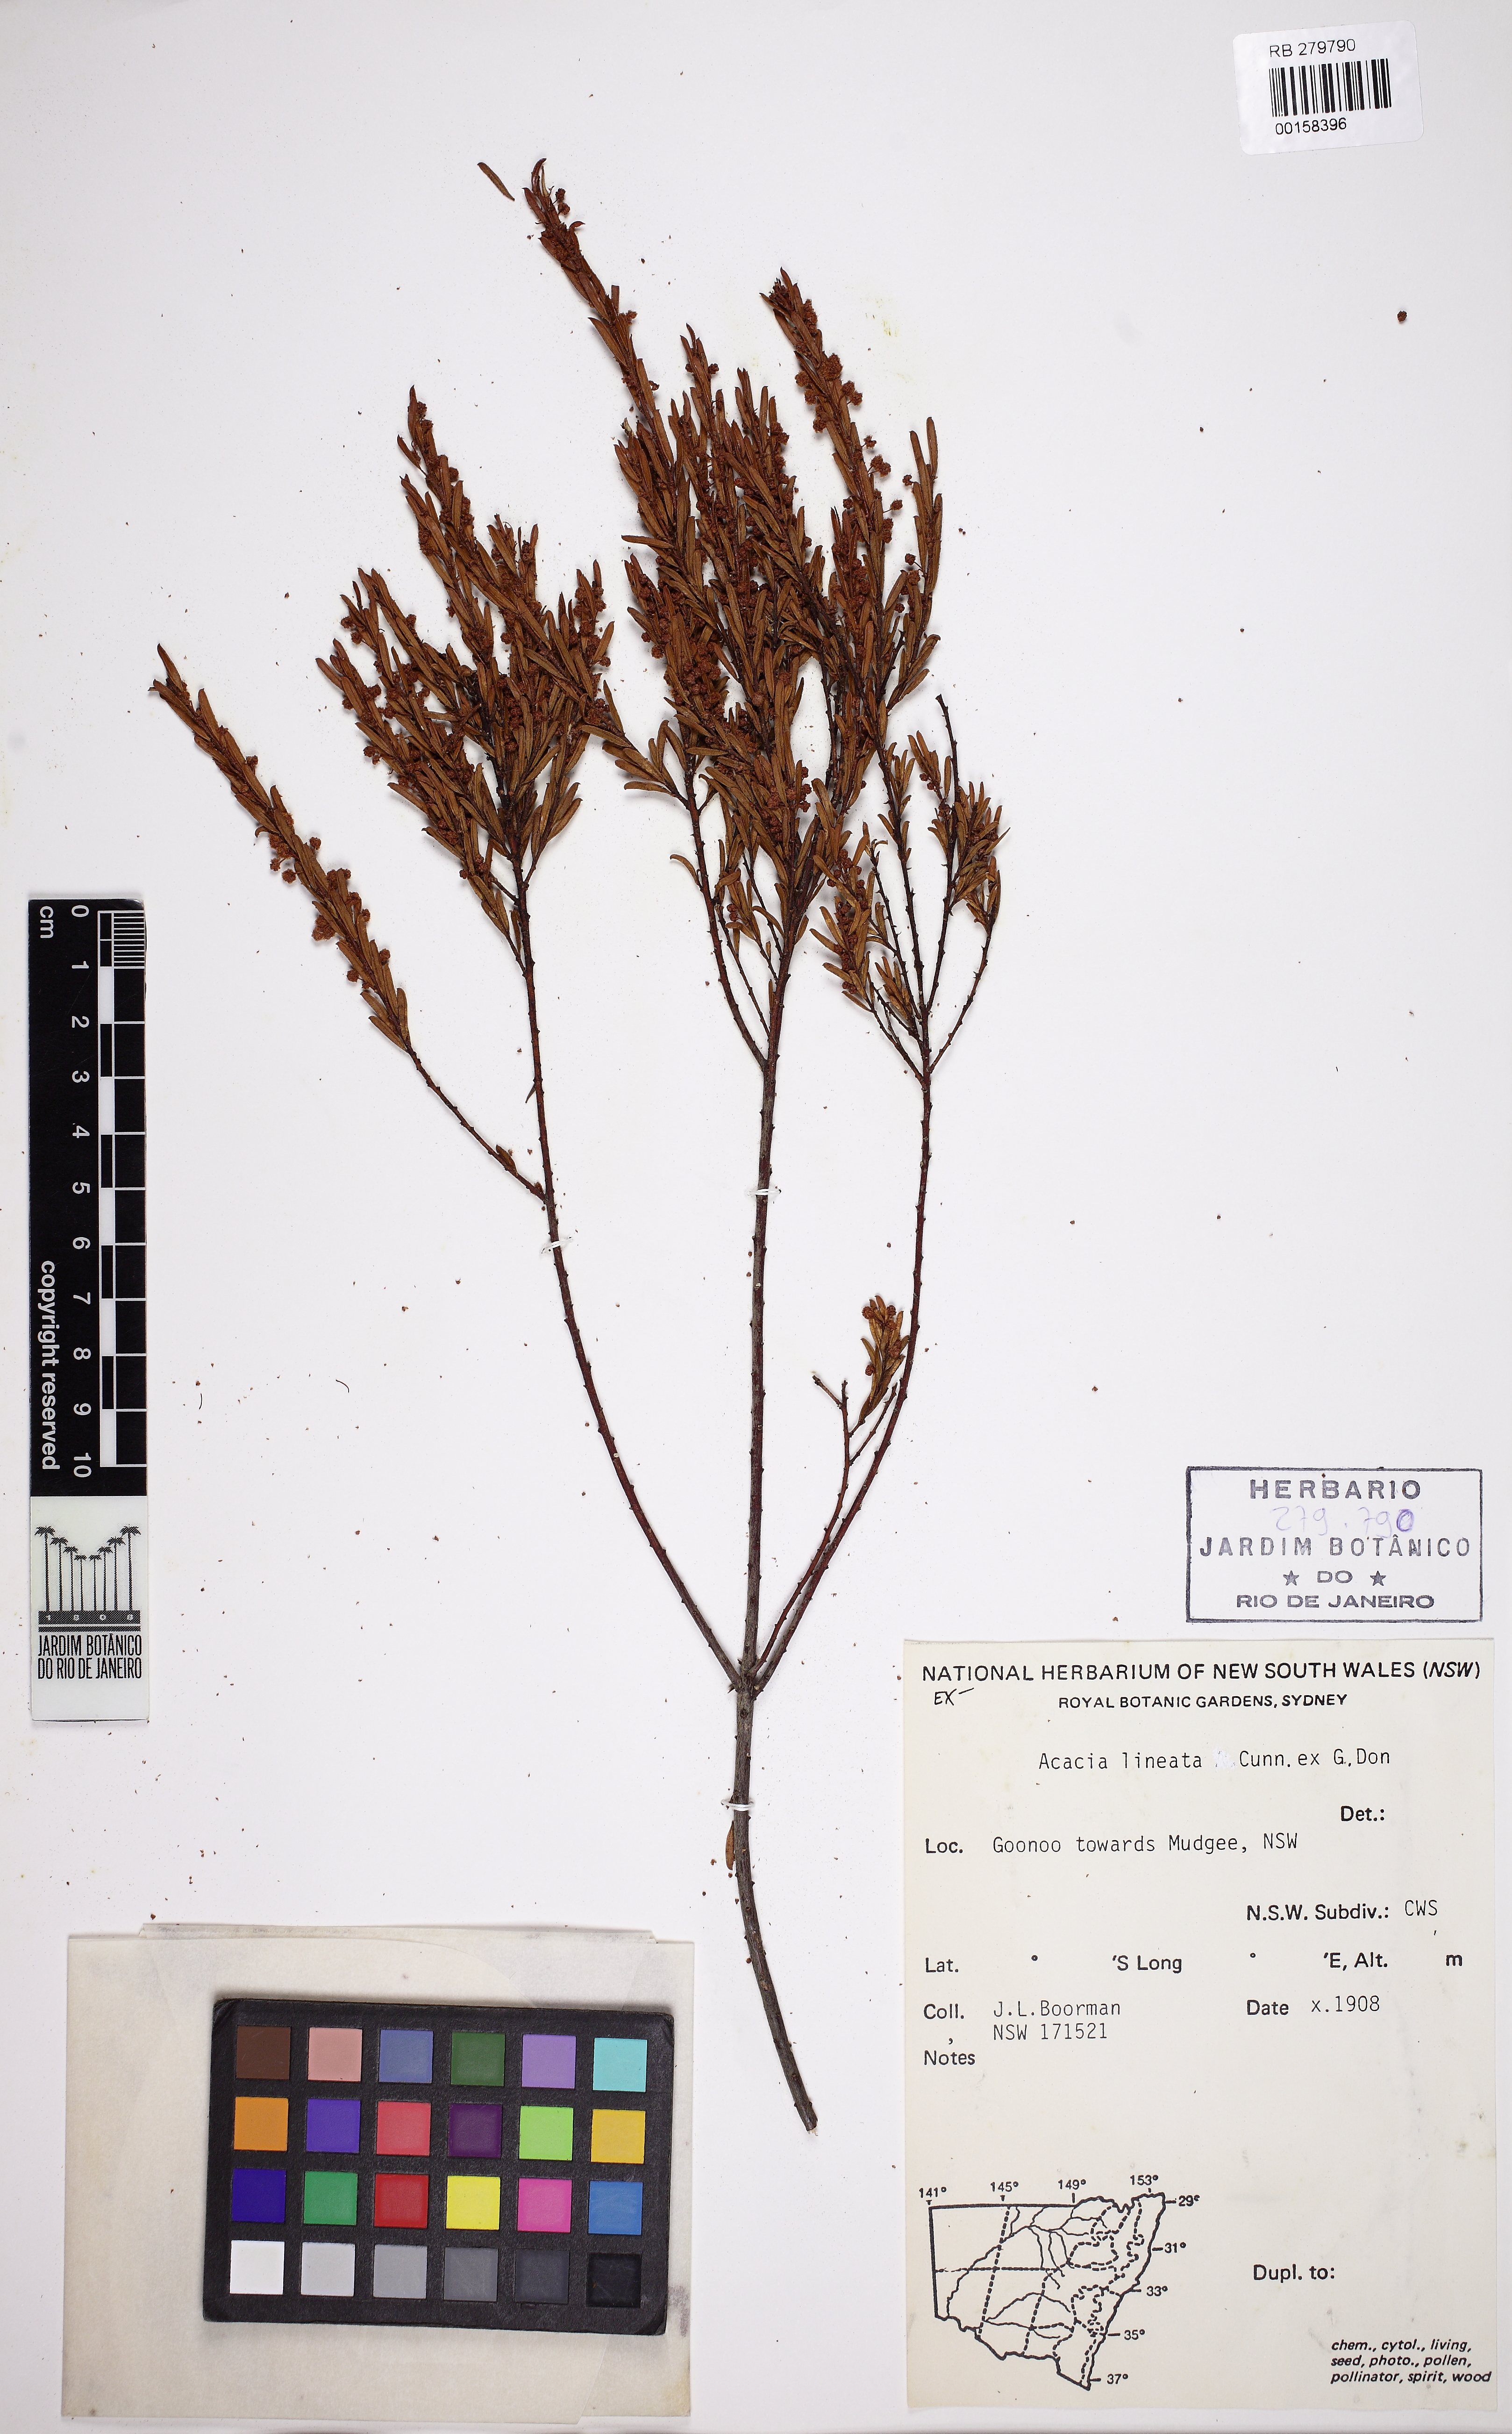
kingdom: Plantae
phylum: Tracheophyta
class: Magnoliopsida
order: Fabales
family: Fabaceae
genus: Acacia
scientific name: Acacia lineata
